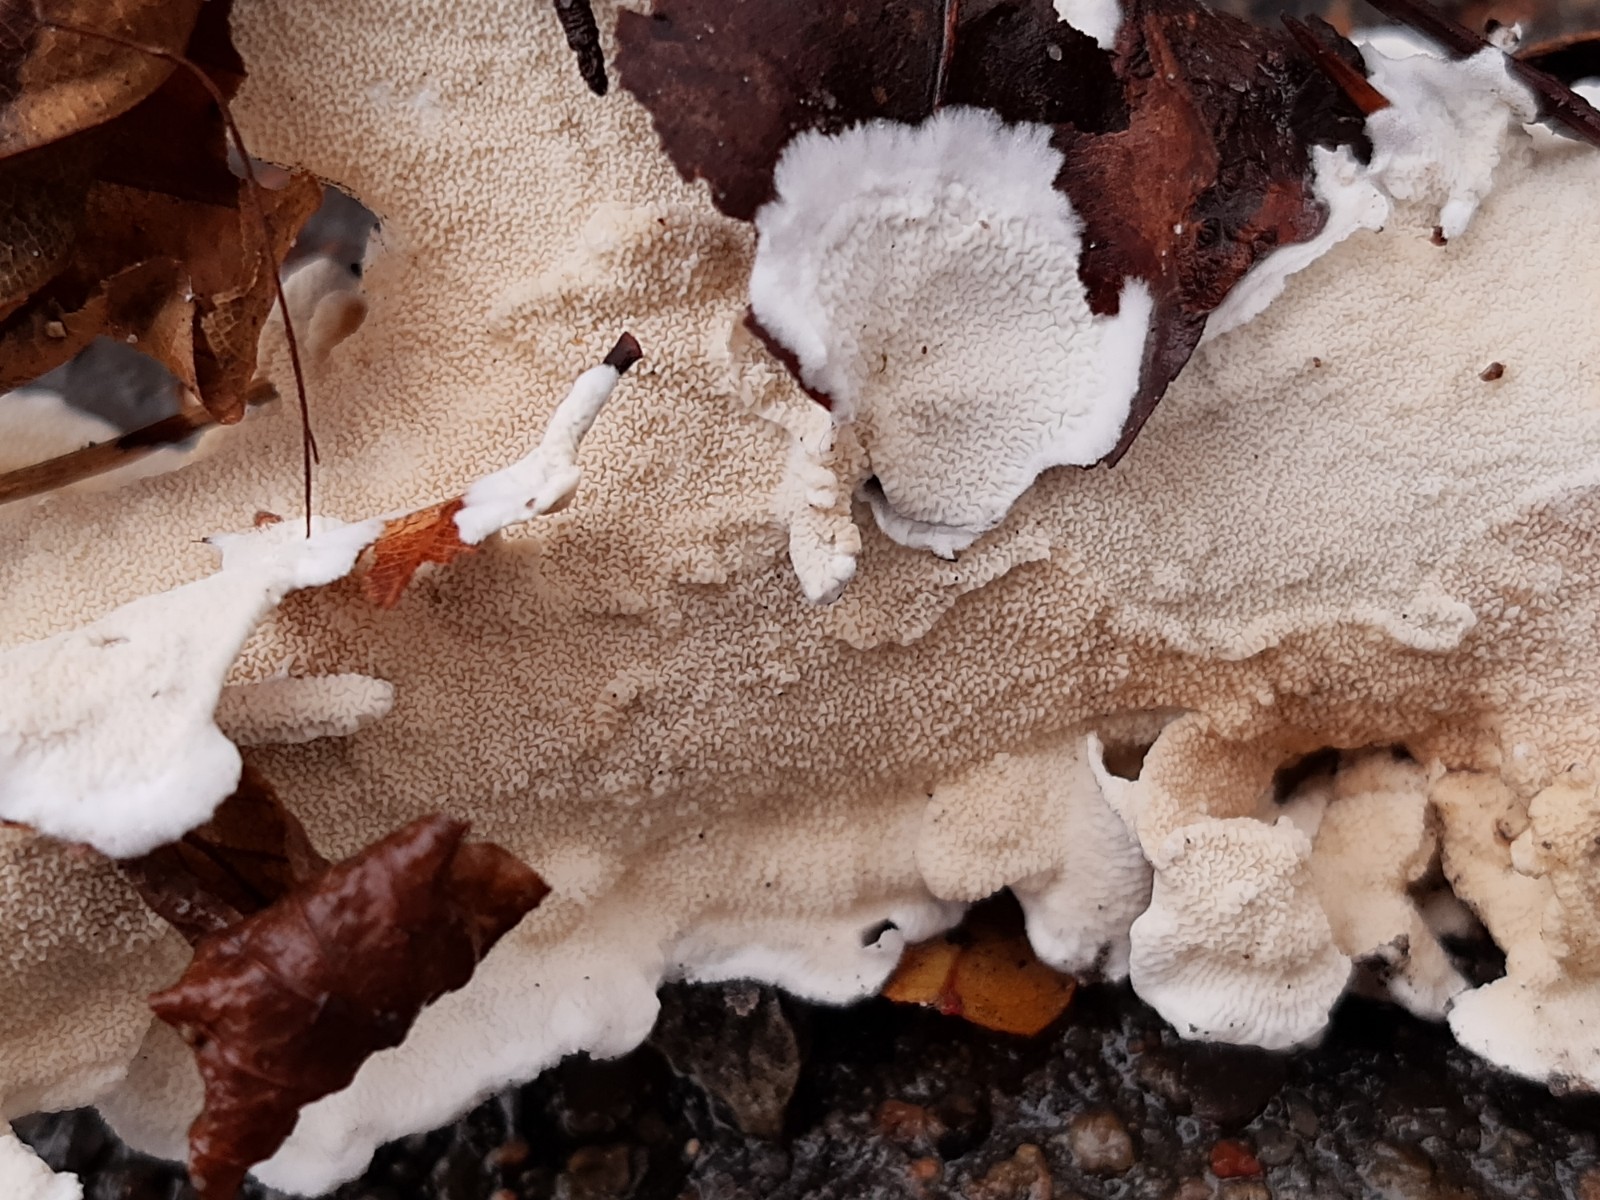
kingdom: Fungi
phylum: Basidiomycota
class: Agaricomycetes
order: Polyporales
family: Irpicaceae
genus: Byssomerulius
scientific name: Byssomerulius corium
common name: læder-åresvamp
